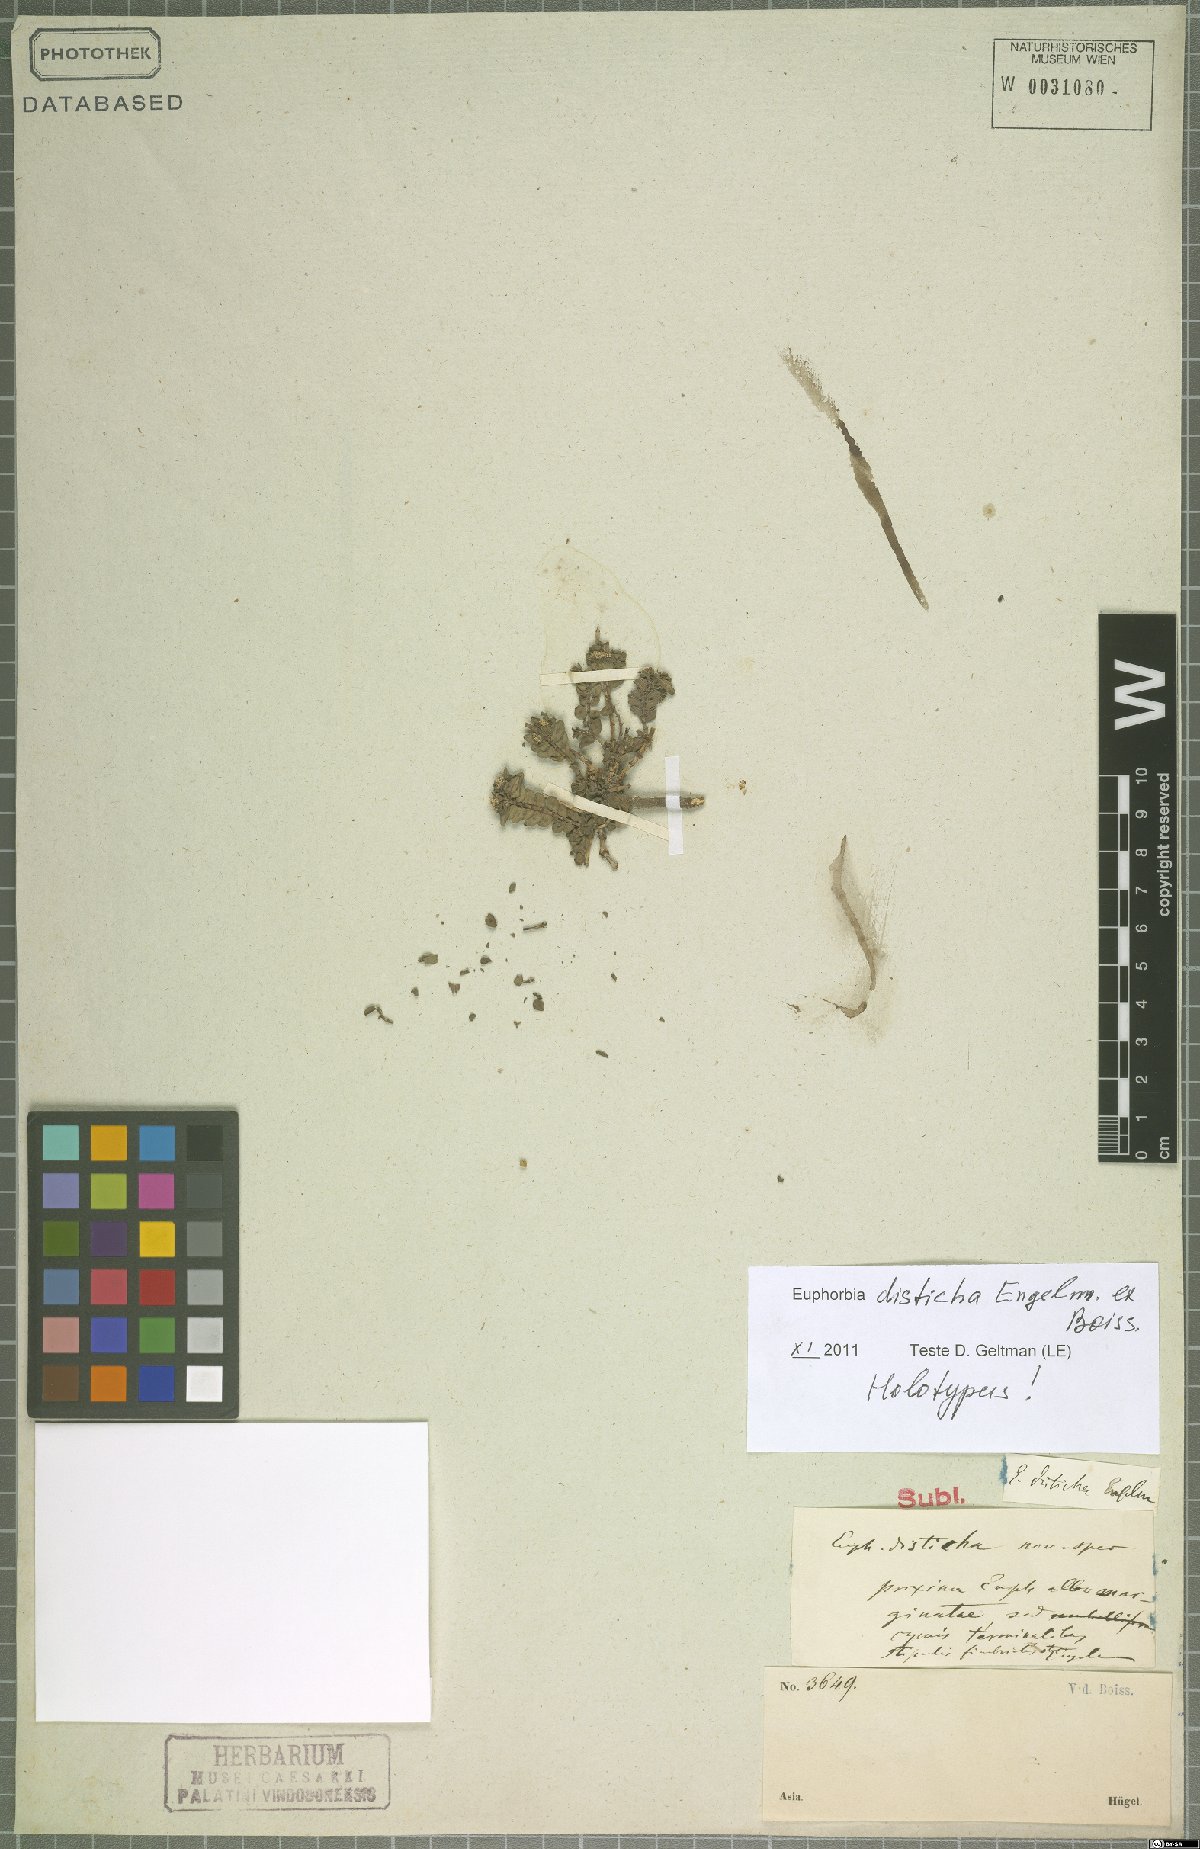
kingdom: Plantae
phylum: Tracheophyta
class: Magnoliopsida
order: Malpighiales
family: Euphorbiaceae
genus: Euphorbia
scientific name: Euphorbia glaucescens
